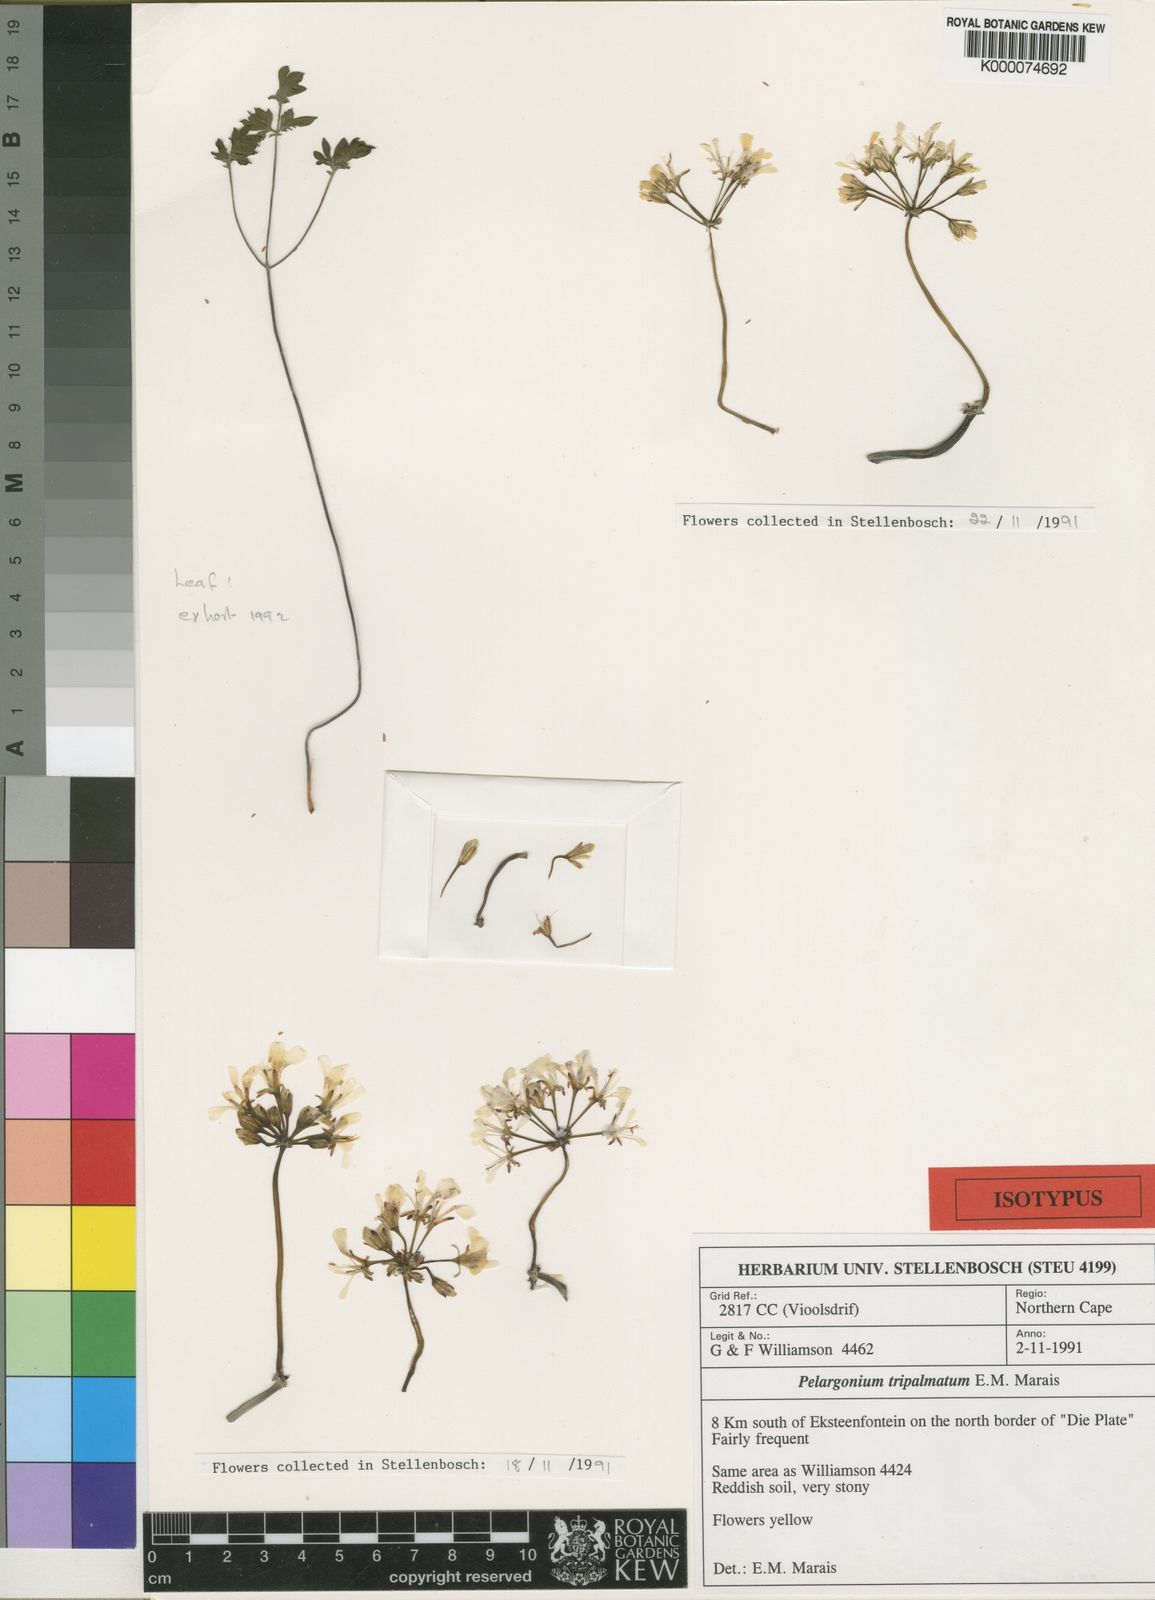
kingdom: Plantae
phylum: Tracheophyta
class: Magnoliopsida
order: Geraniales
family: Geraniaceae
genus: Pelargonium
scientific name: Pelargonium tripalmatum
